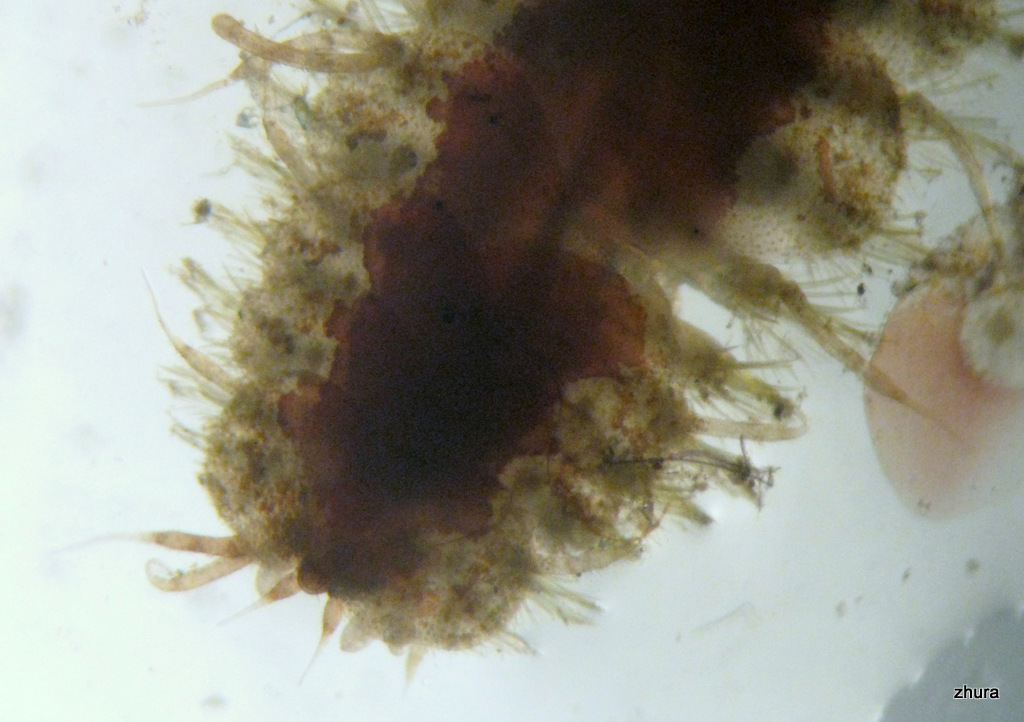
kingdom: Animalia
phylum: Annelida
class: Polychaeta
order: Phyllodocida
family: Polynoidae
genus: Lepidonotus
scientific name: Lepidonotus squamatus
